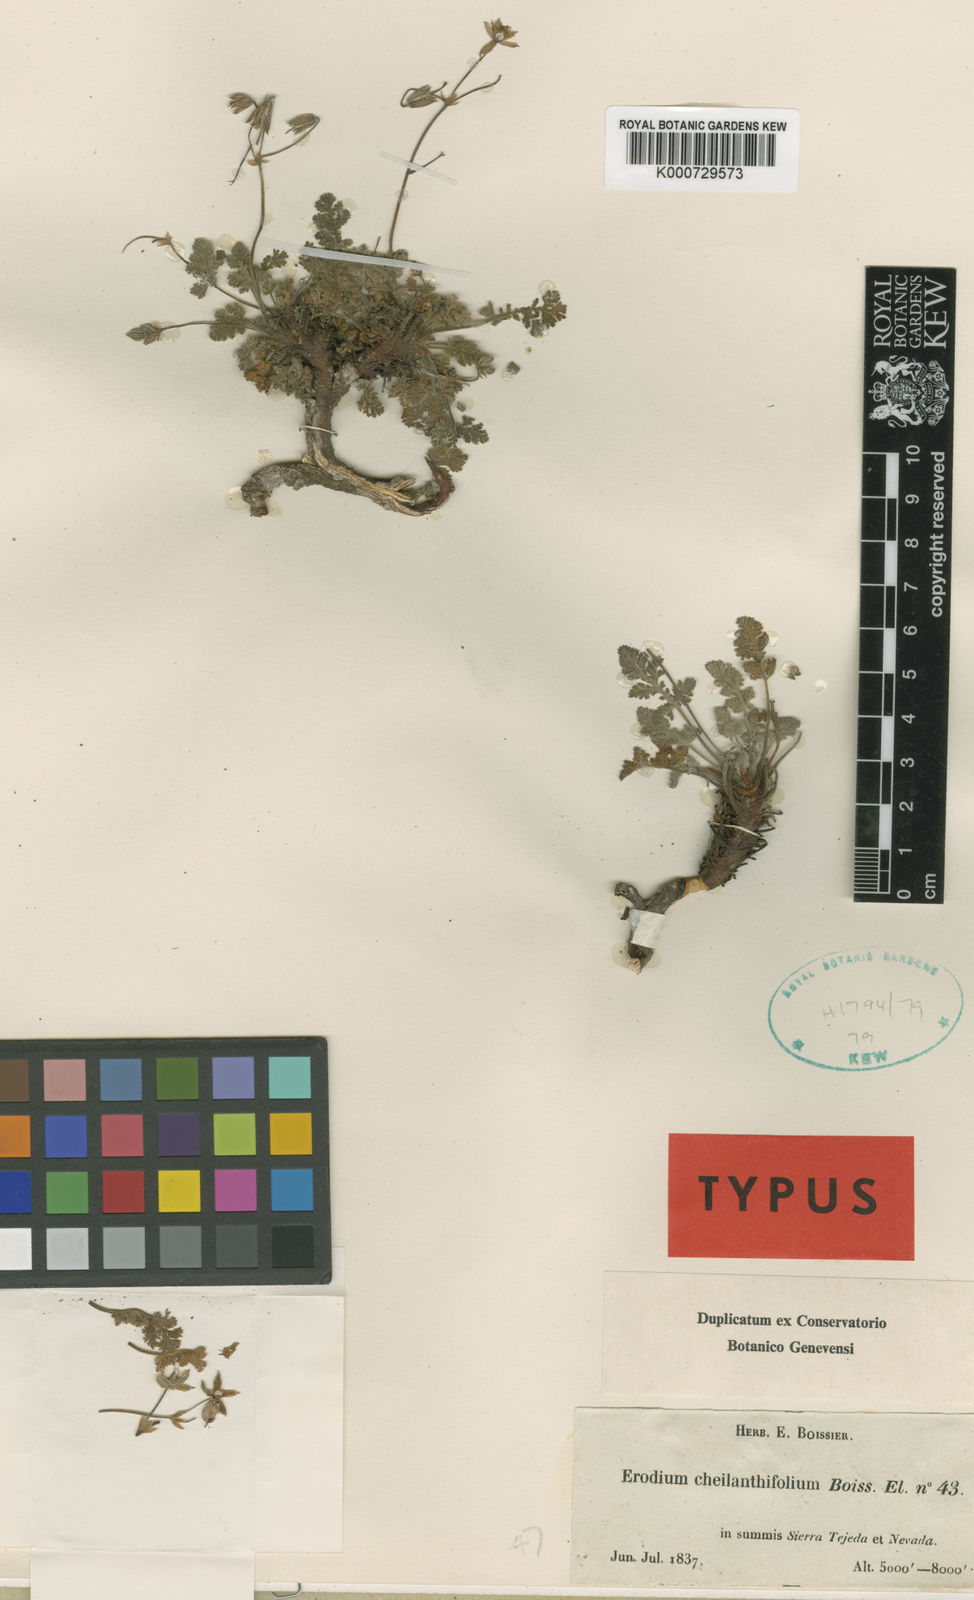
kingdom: Plantae
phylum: Tracheophyta
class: Magnoliopsida
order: Geraniales
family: Geraniaceae
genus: Erodium
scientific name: Erodium cheilanthifolium
